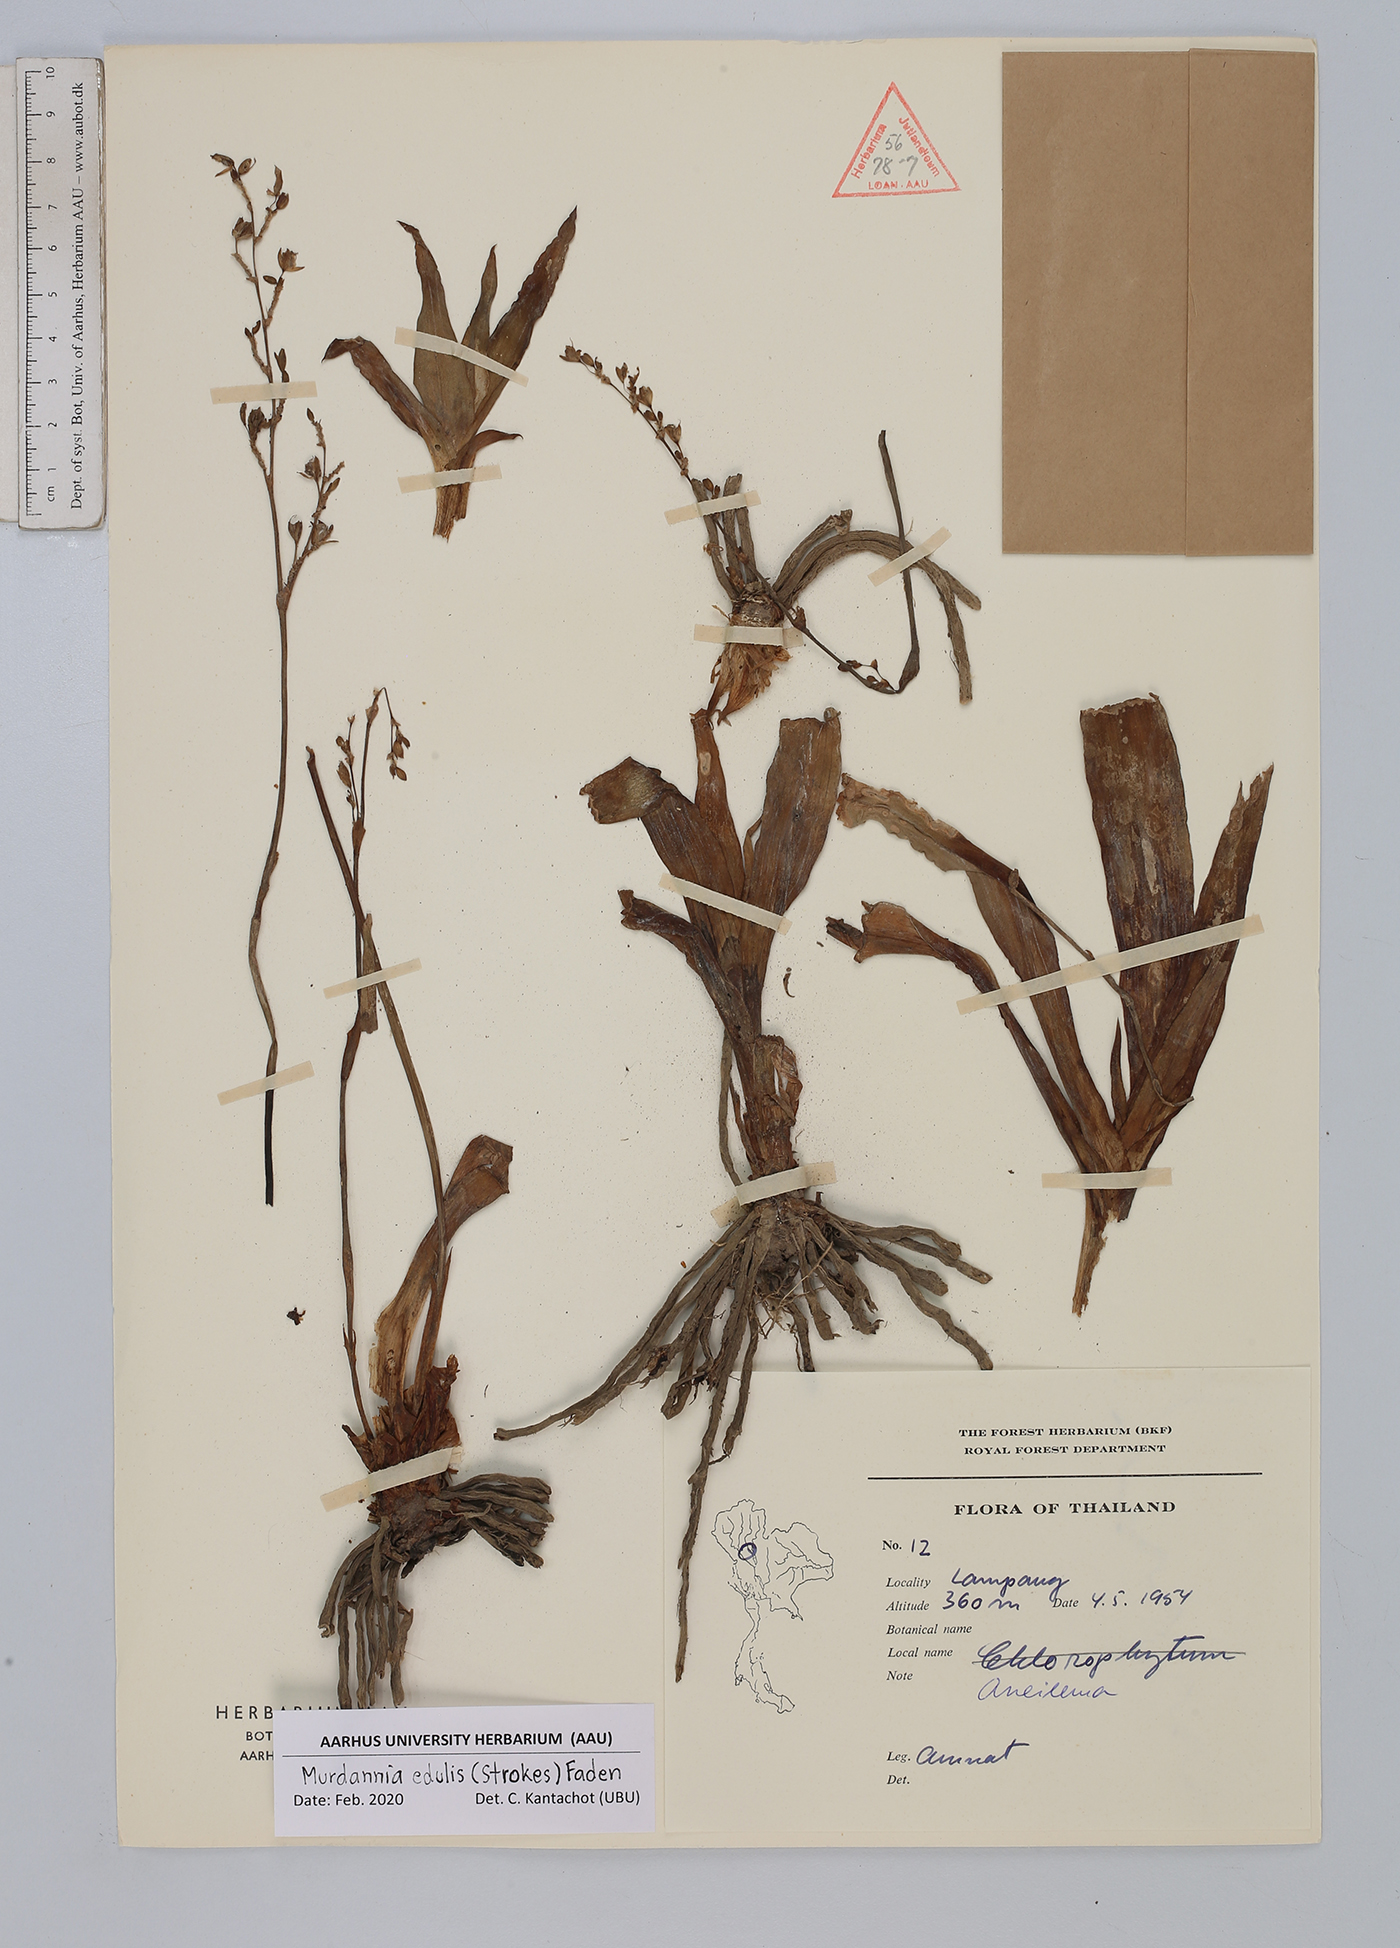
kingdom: Plantae
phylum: Tracheophyta
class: Liliopsida
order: Commelinales
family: Commelinaceae
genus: Murdannia
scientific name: Murdannia edulis
